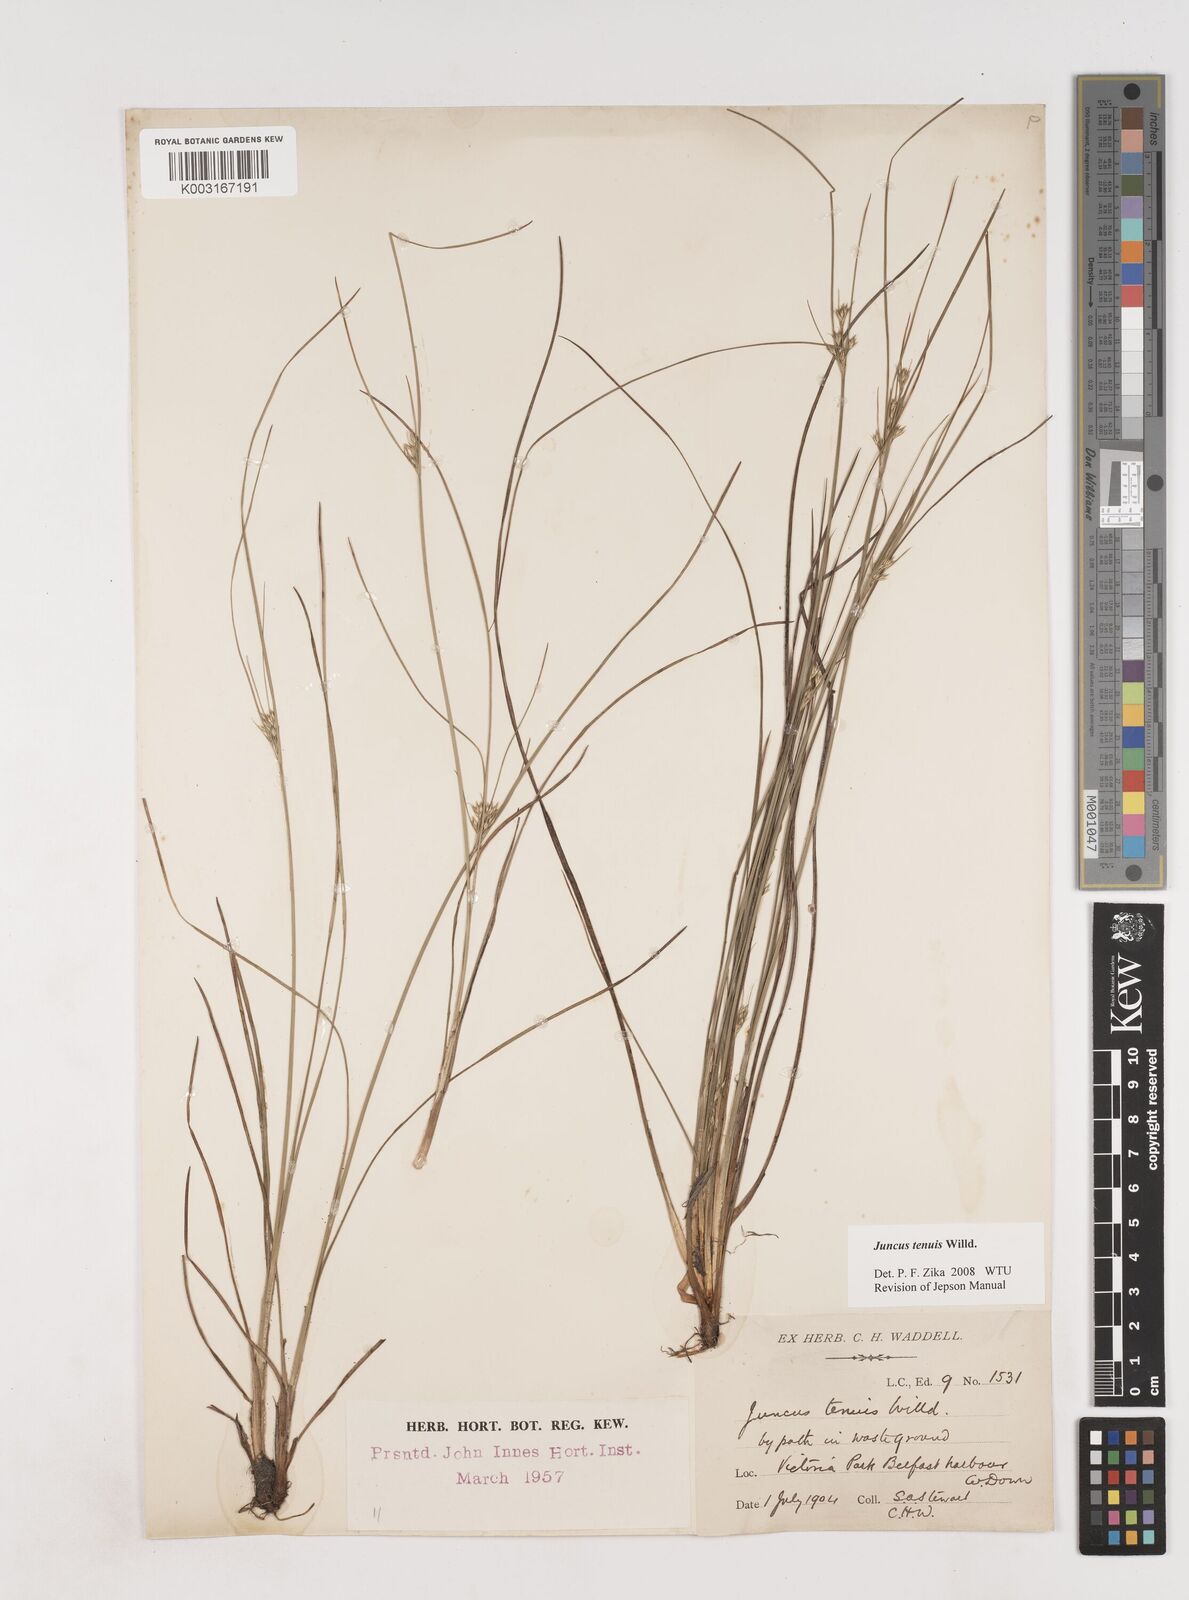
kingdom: Plantae
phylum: Tracheophyta
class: Liliopsida
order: Poales
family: Juncaceae
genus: Juncus
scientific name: Juncus tenuis
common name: Slender rush
